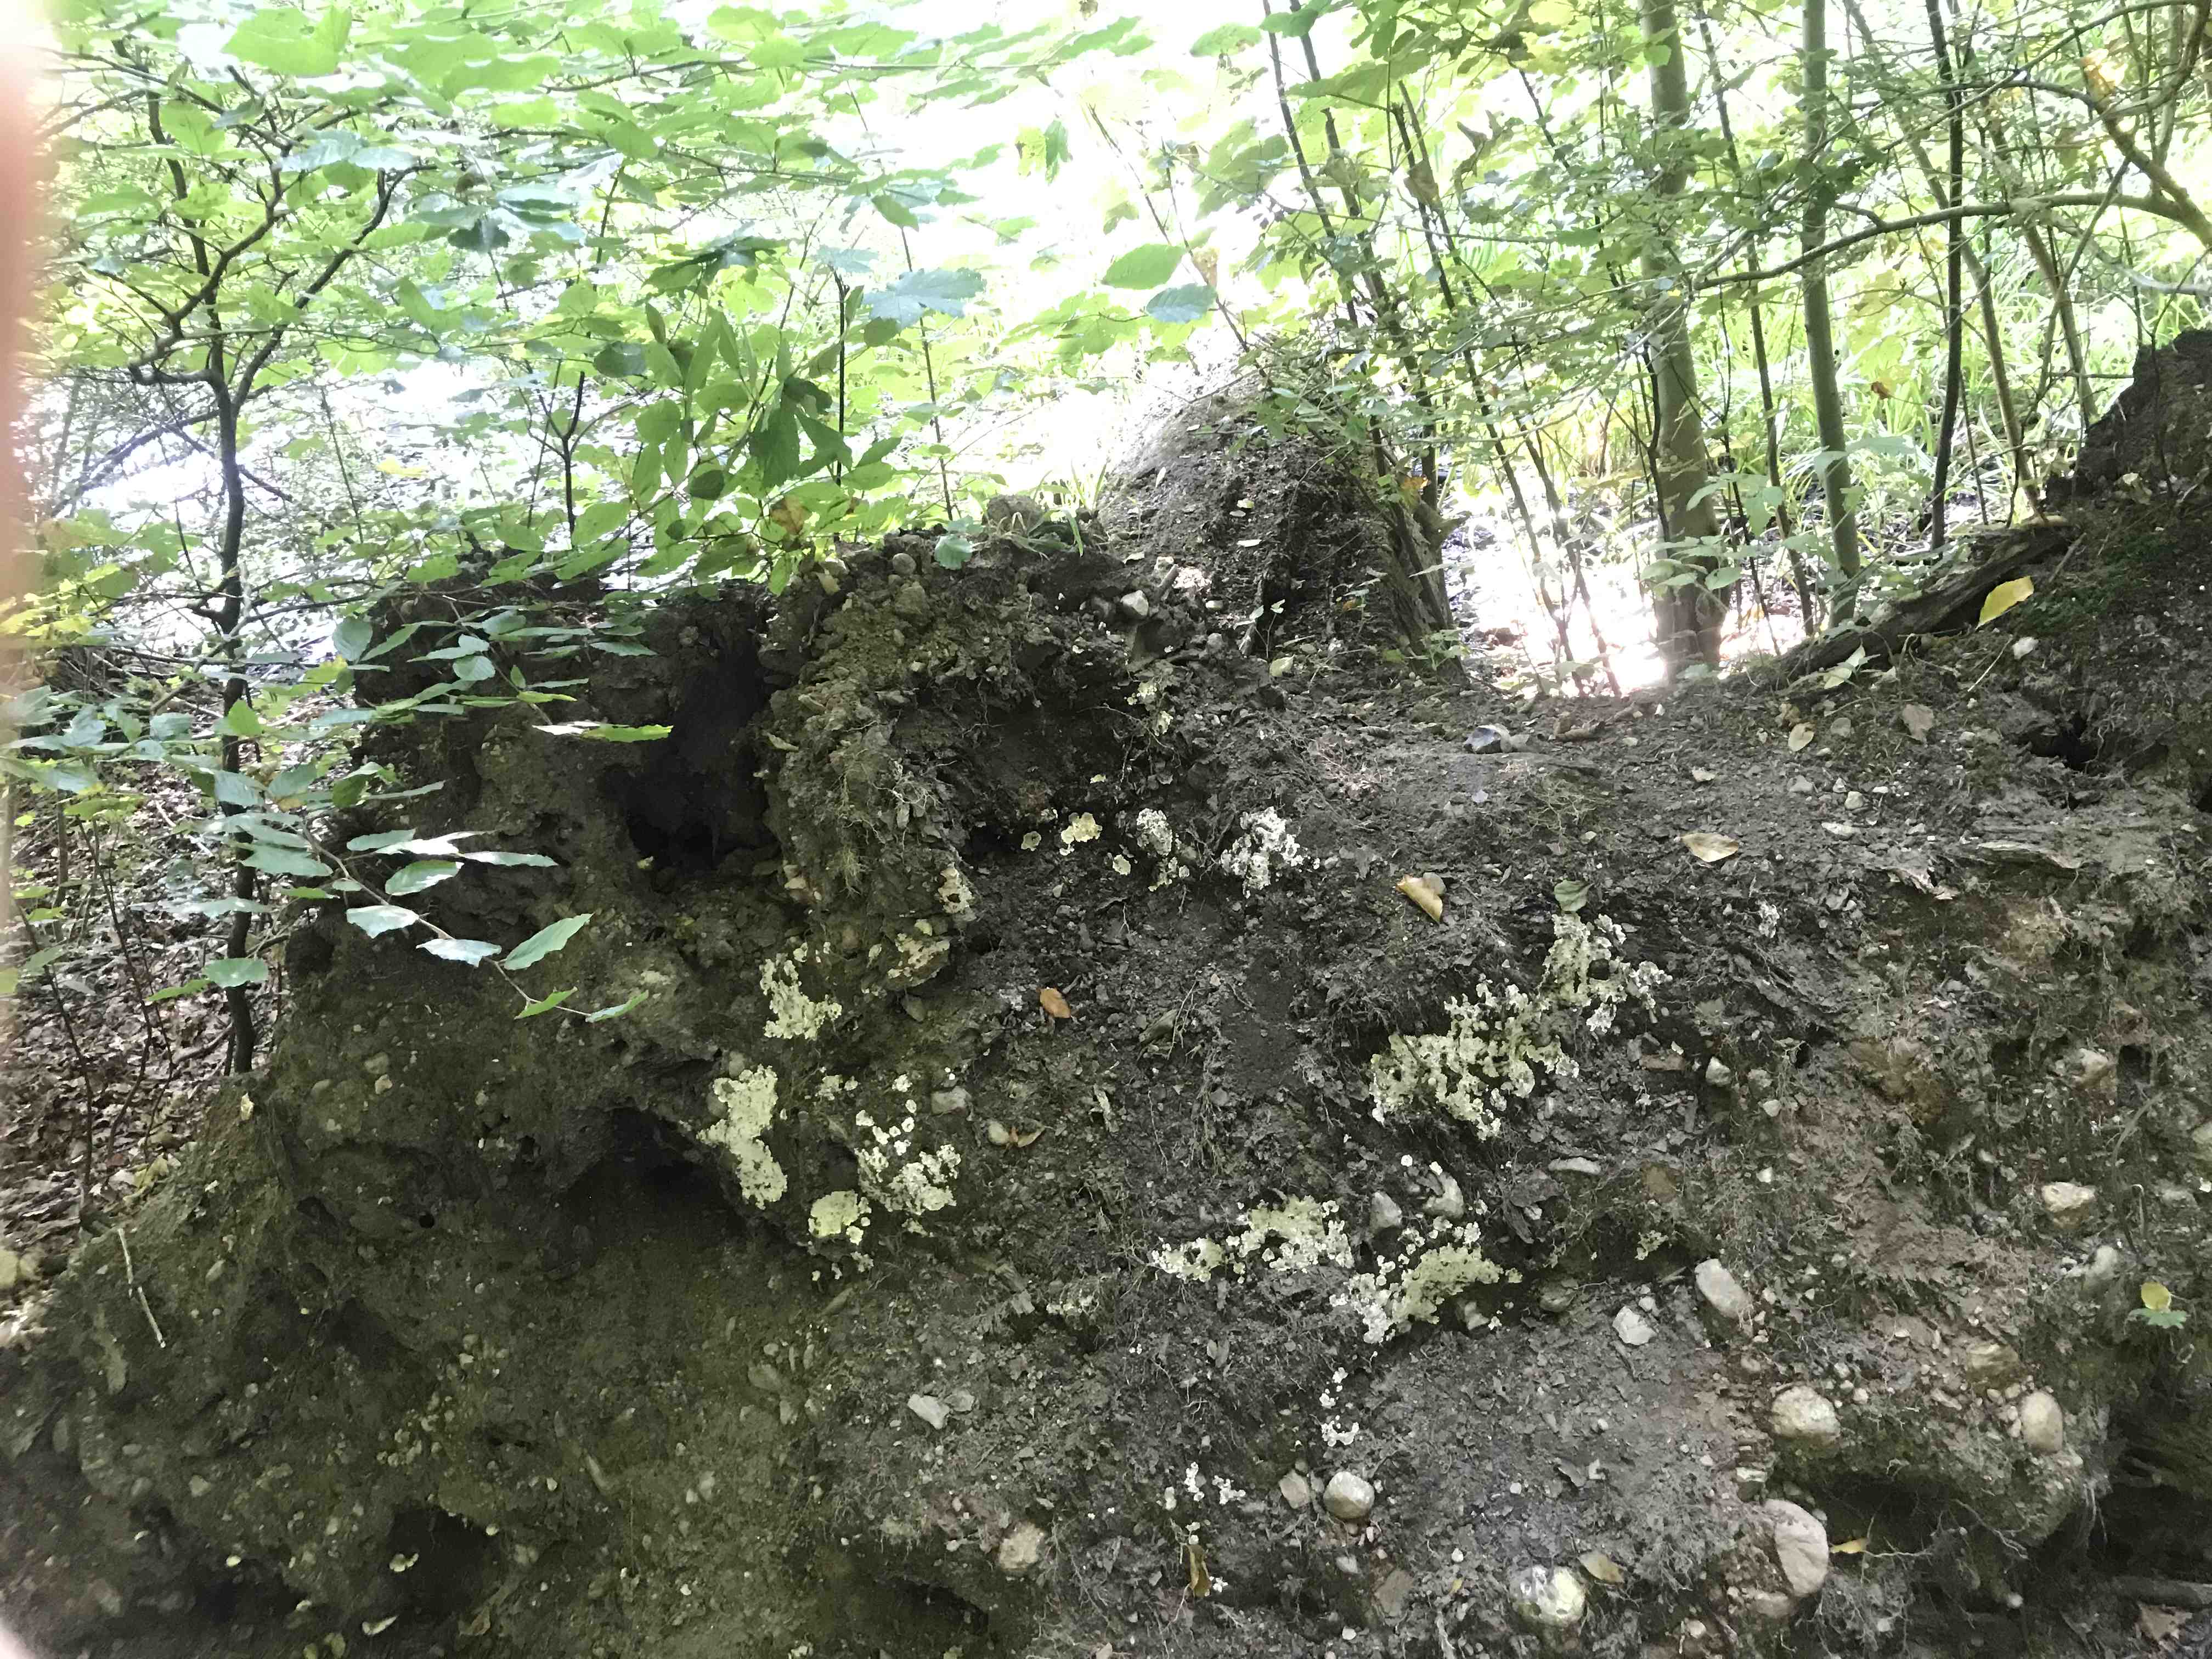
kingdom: Fungi
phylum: Basidiomycota
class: Agaricomycetes
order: Polyporales
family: Meruliaceae
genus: Physisporinus
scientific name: Physisporinus
